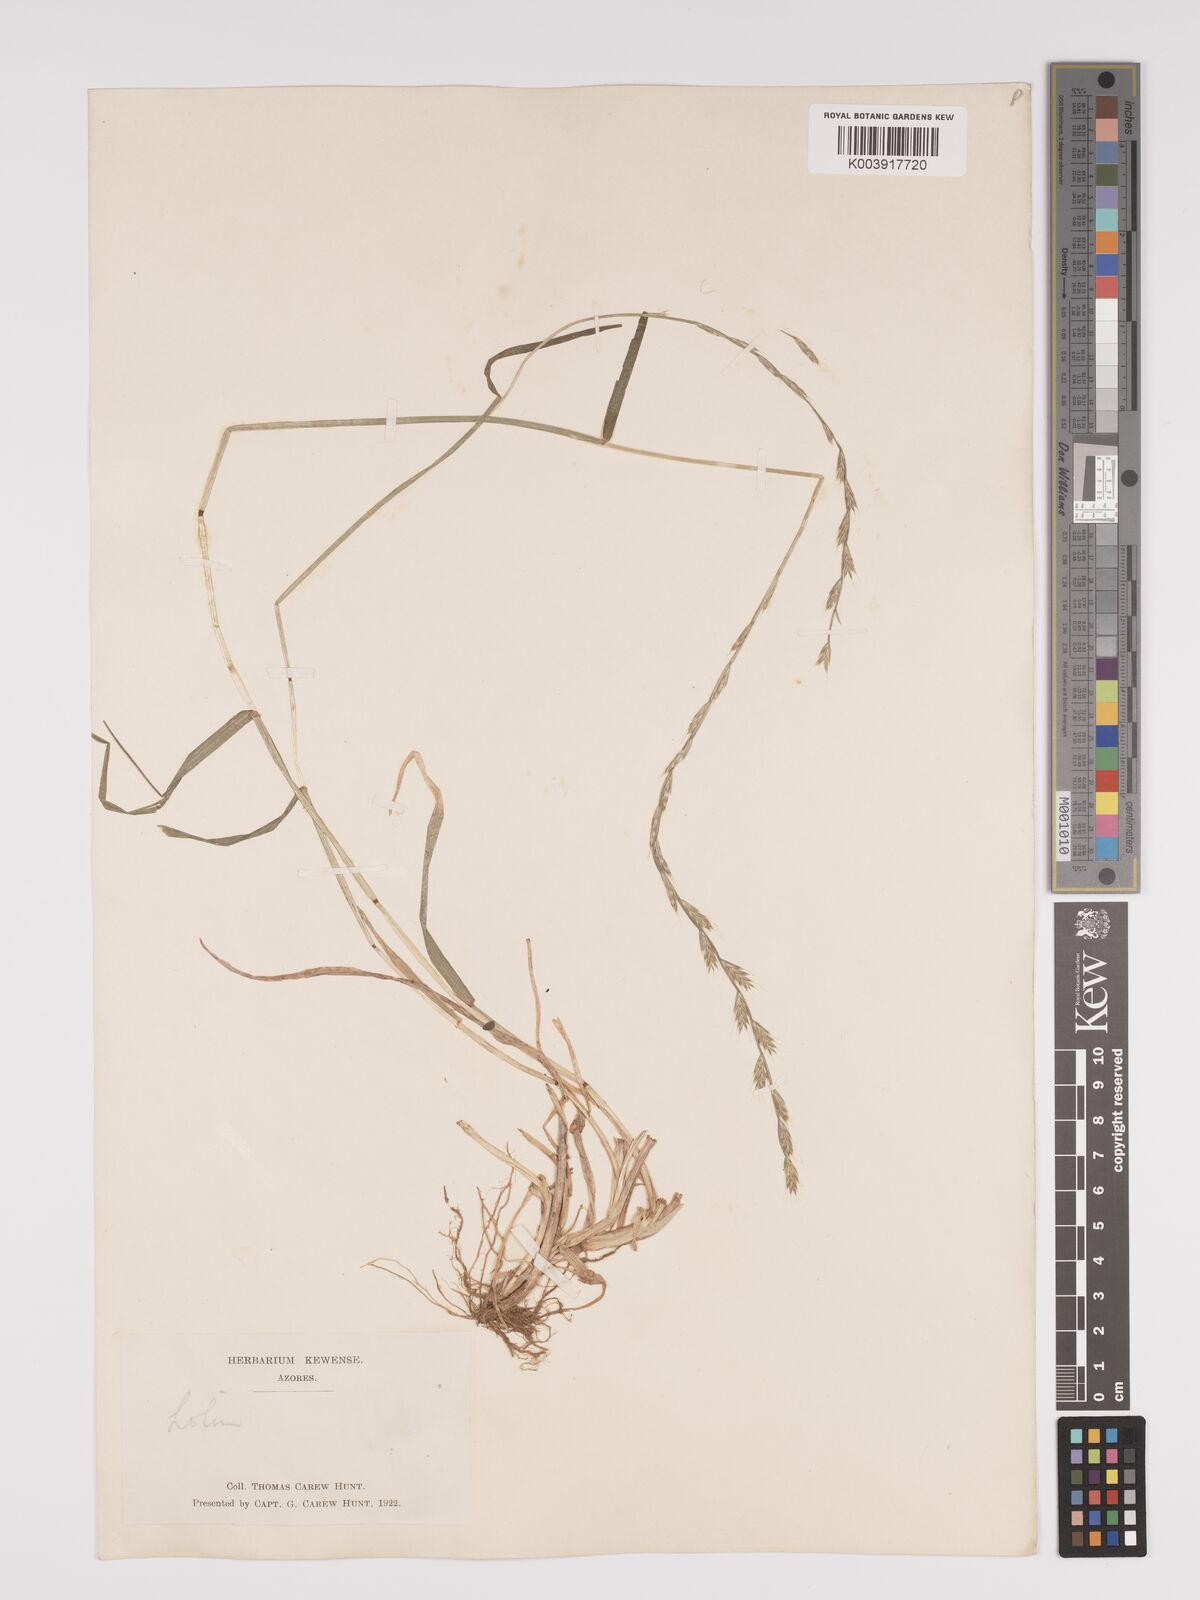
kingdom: Plantae
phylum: Tracheophyta
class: Liliopsida
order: Poales
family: Poaceae
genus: Lolium
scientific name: Lolium perenne
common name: Perennial ryegrass
